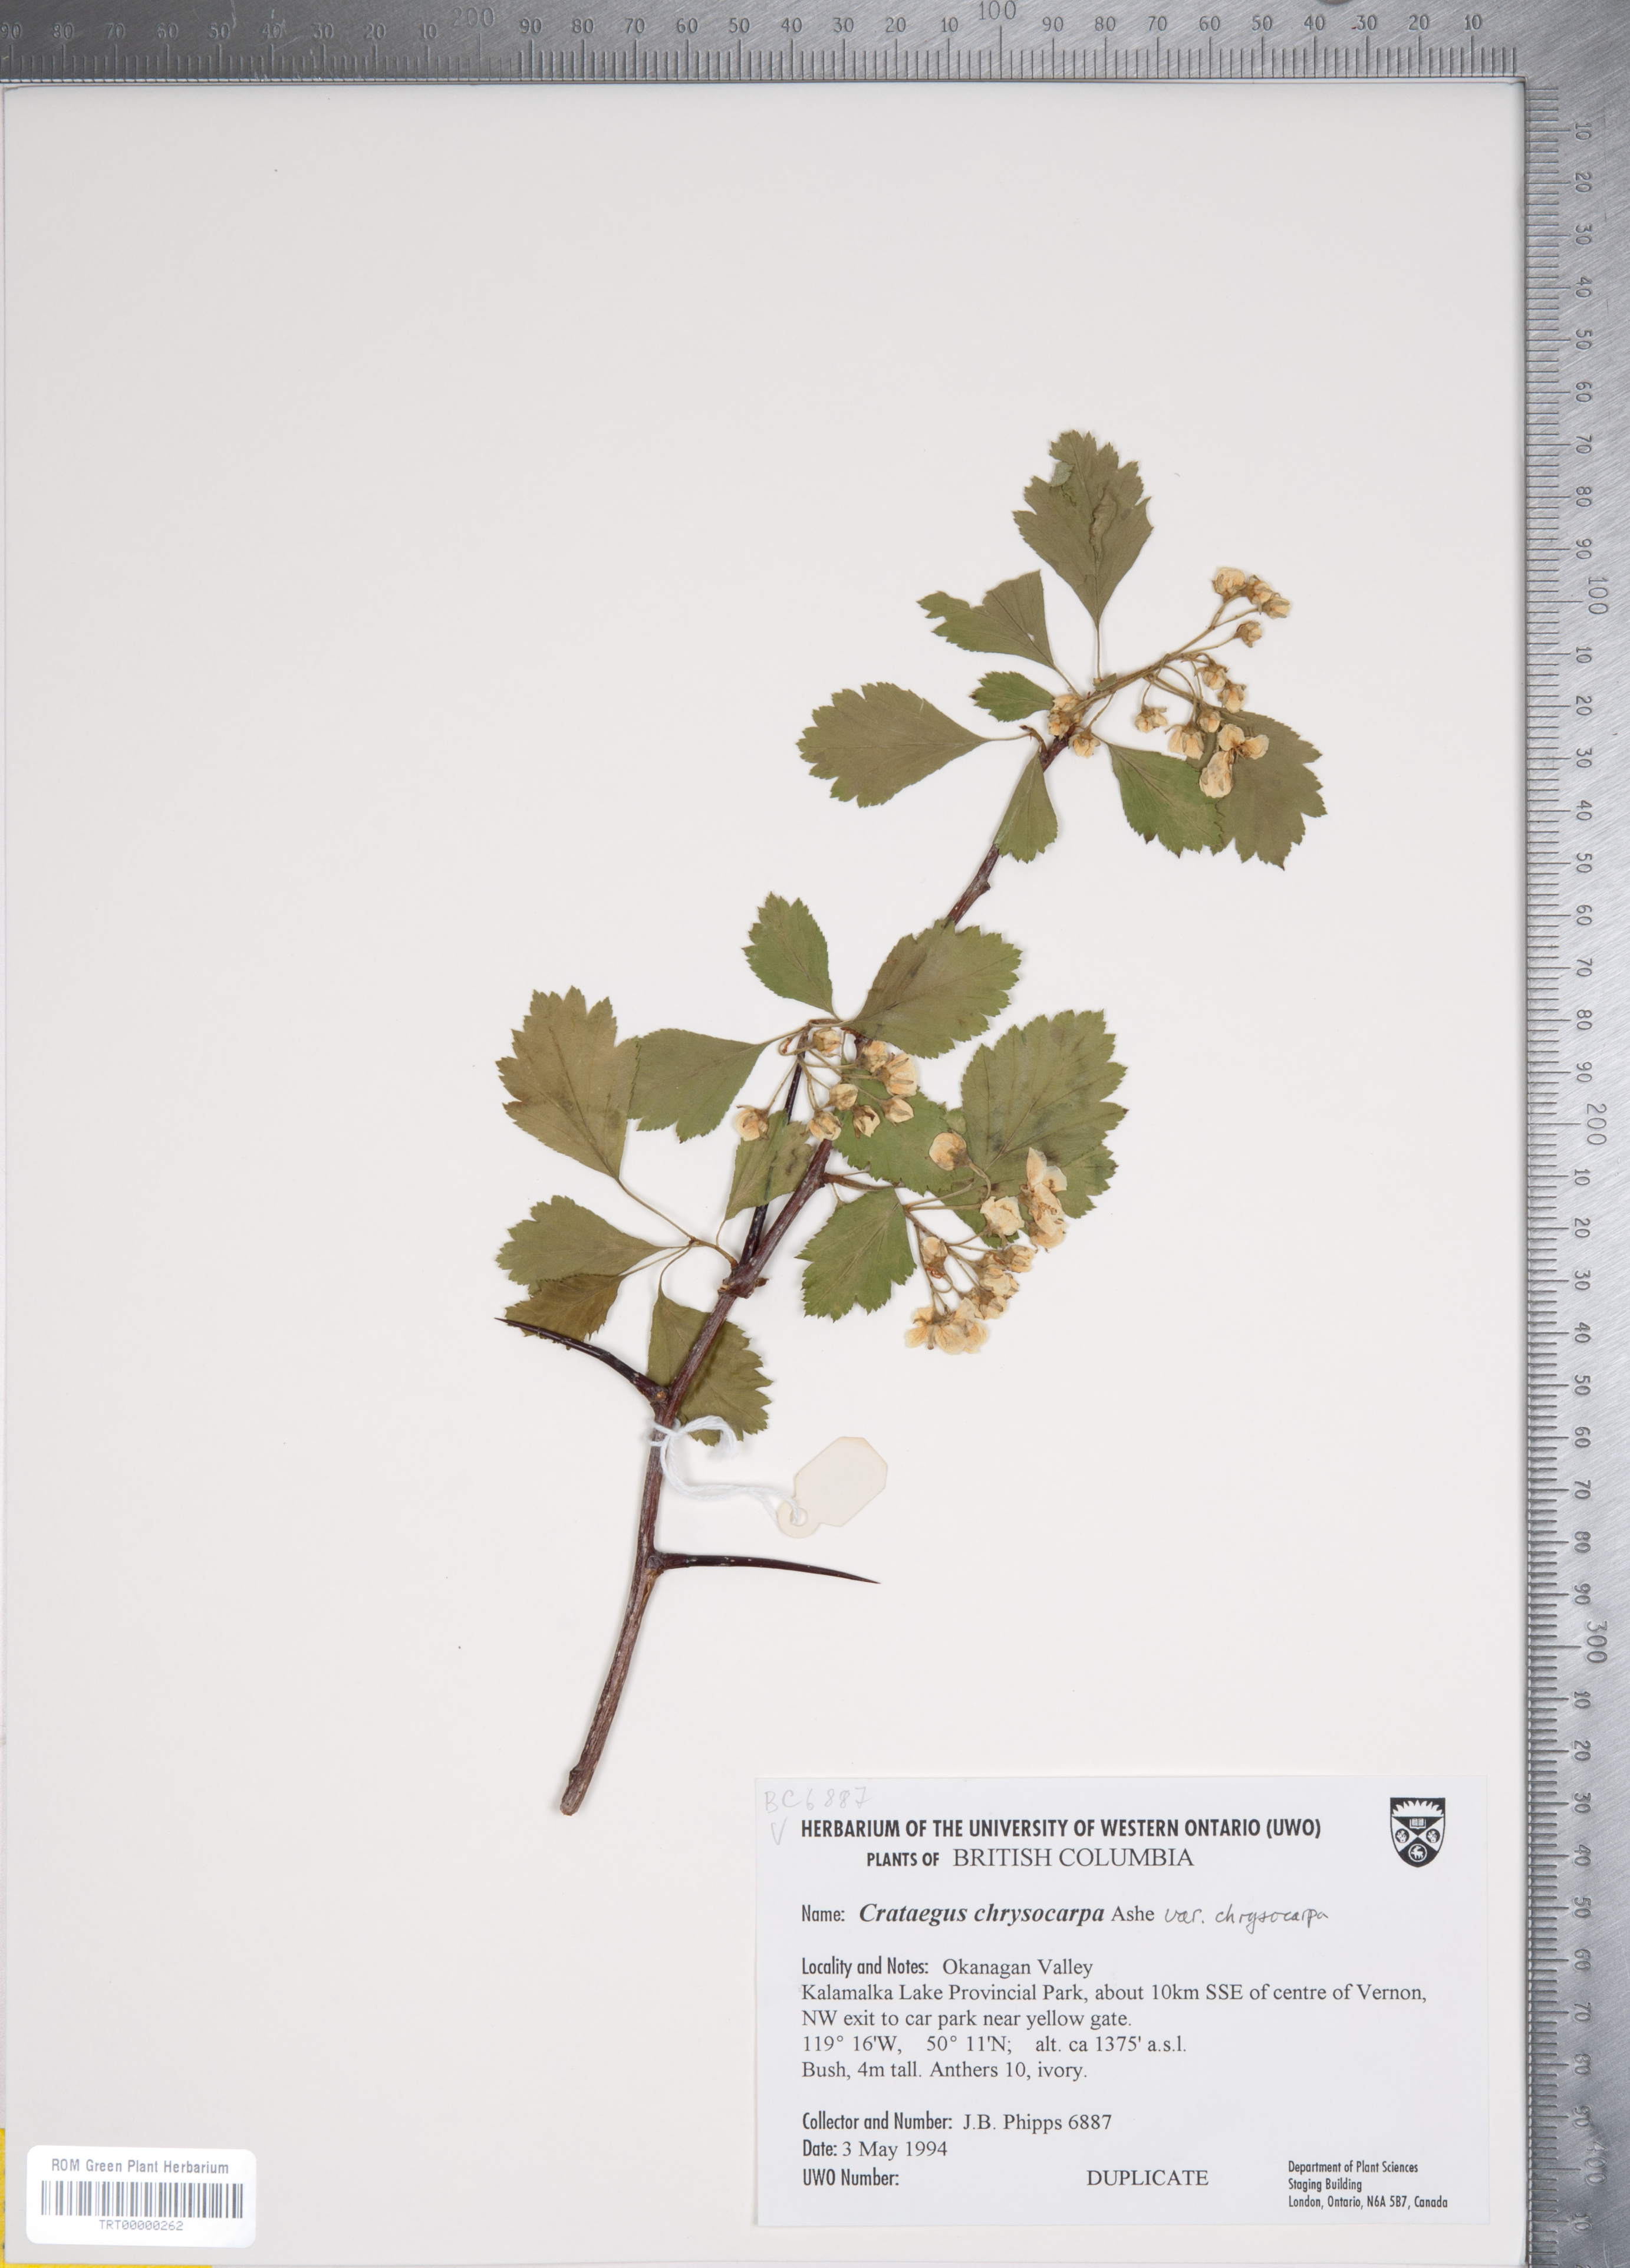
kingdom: Plantae
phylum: Tracheophyta
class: Magnoliopsida
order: Rosales
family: Rosaceae
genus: Crataegus
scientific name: Crataegus chrysocarpa
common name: Fire-berry hawthorn
